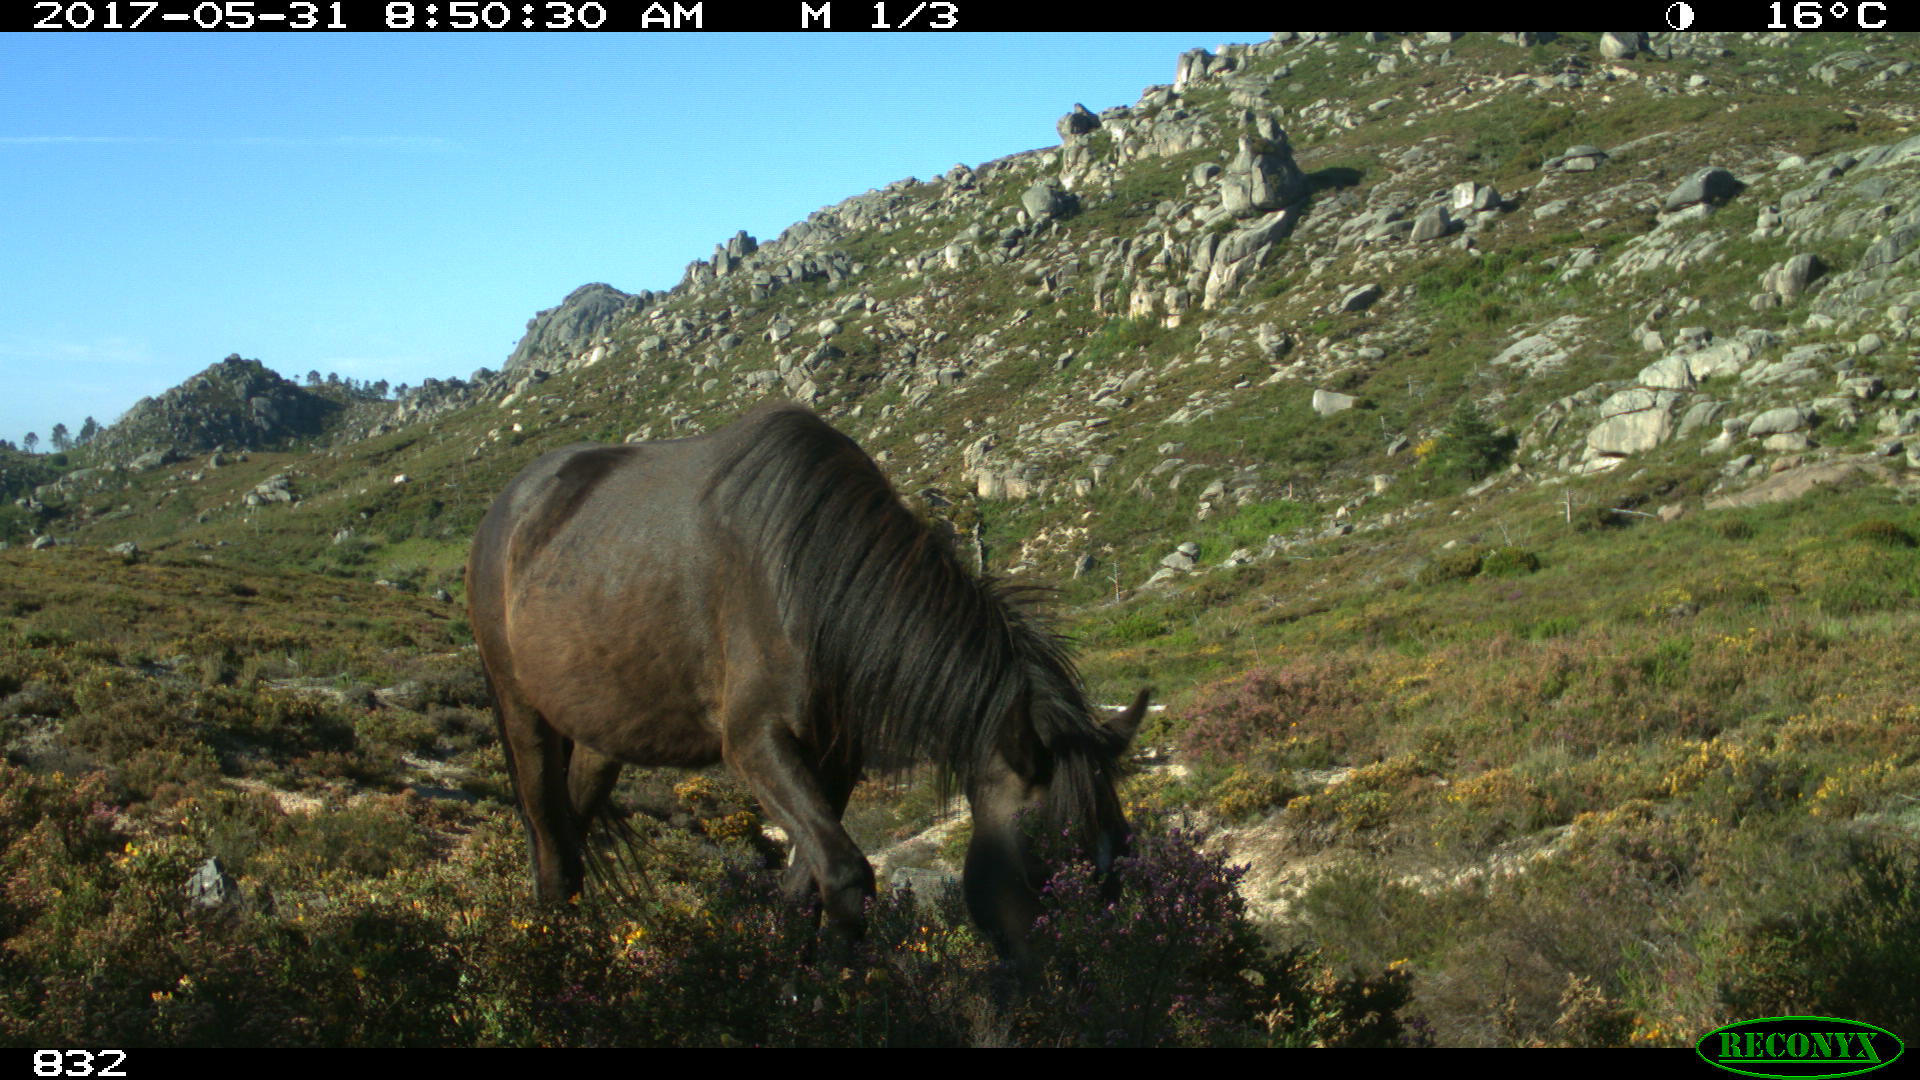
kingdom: Animalia
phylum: Chordata
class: Mammalia
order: Perissodactyla
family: Equidae
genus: Equus
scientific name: Equus caballus
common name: Horse
